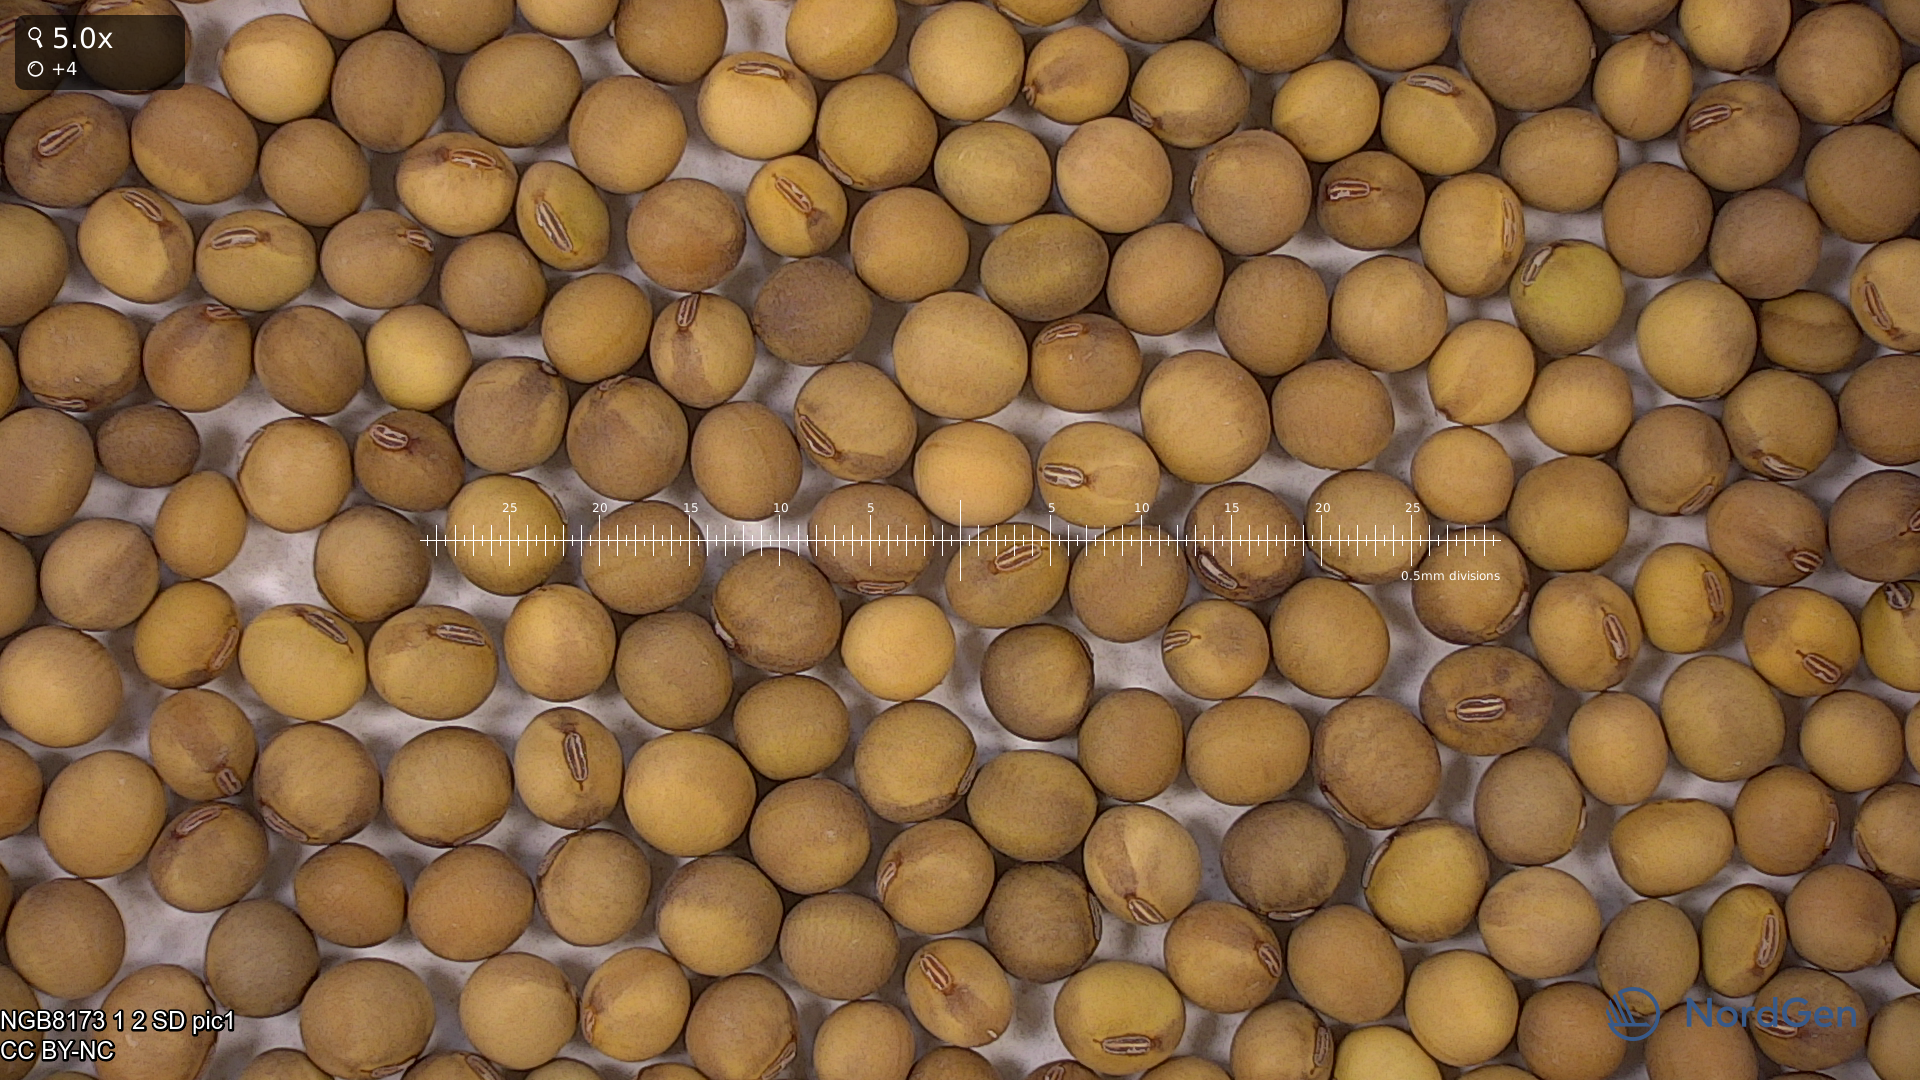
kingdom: Plantae
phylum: Tracheophyta
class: Magnoliopsida
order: Fabales
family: Fabaceae
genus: Glycine
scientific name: Glycine max
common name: Soya-bean
